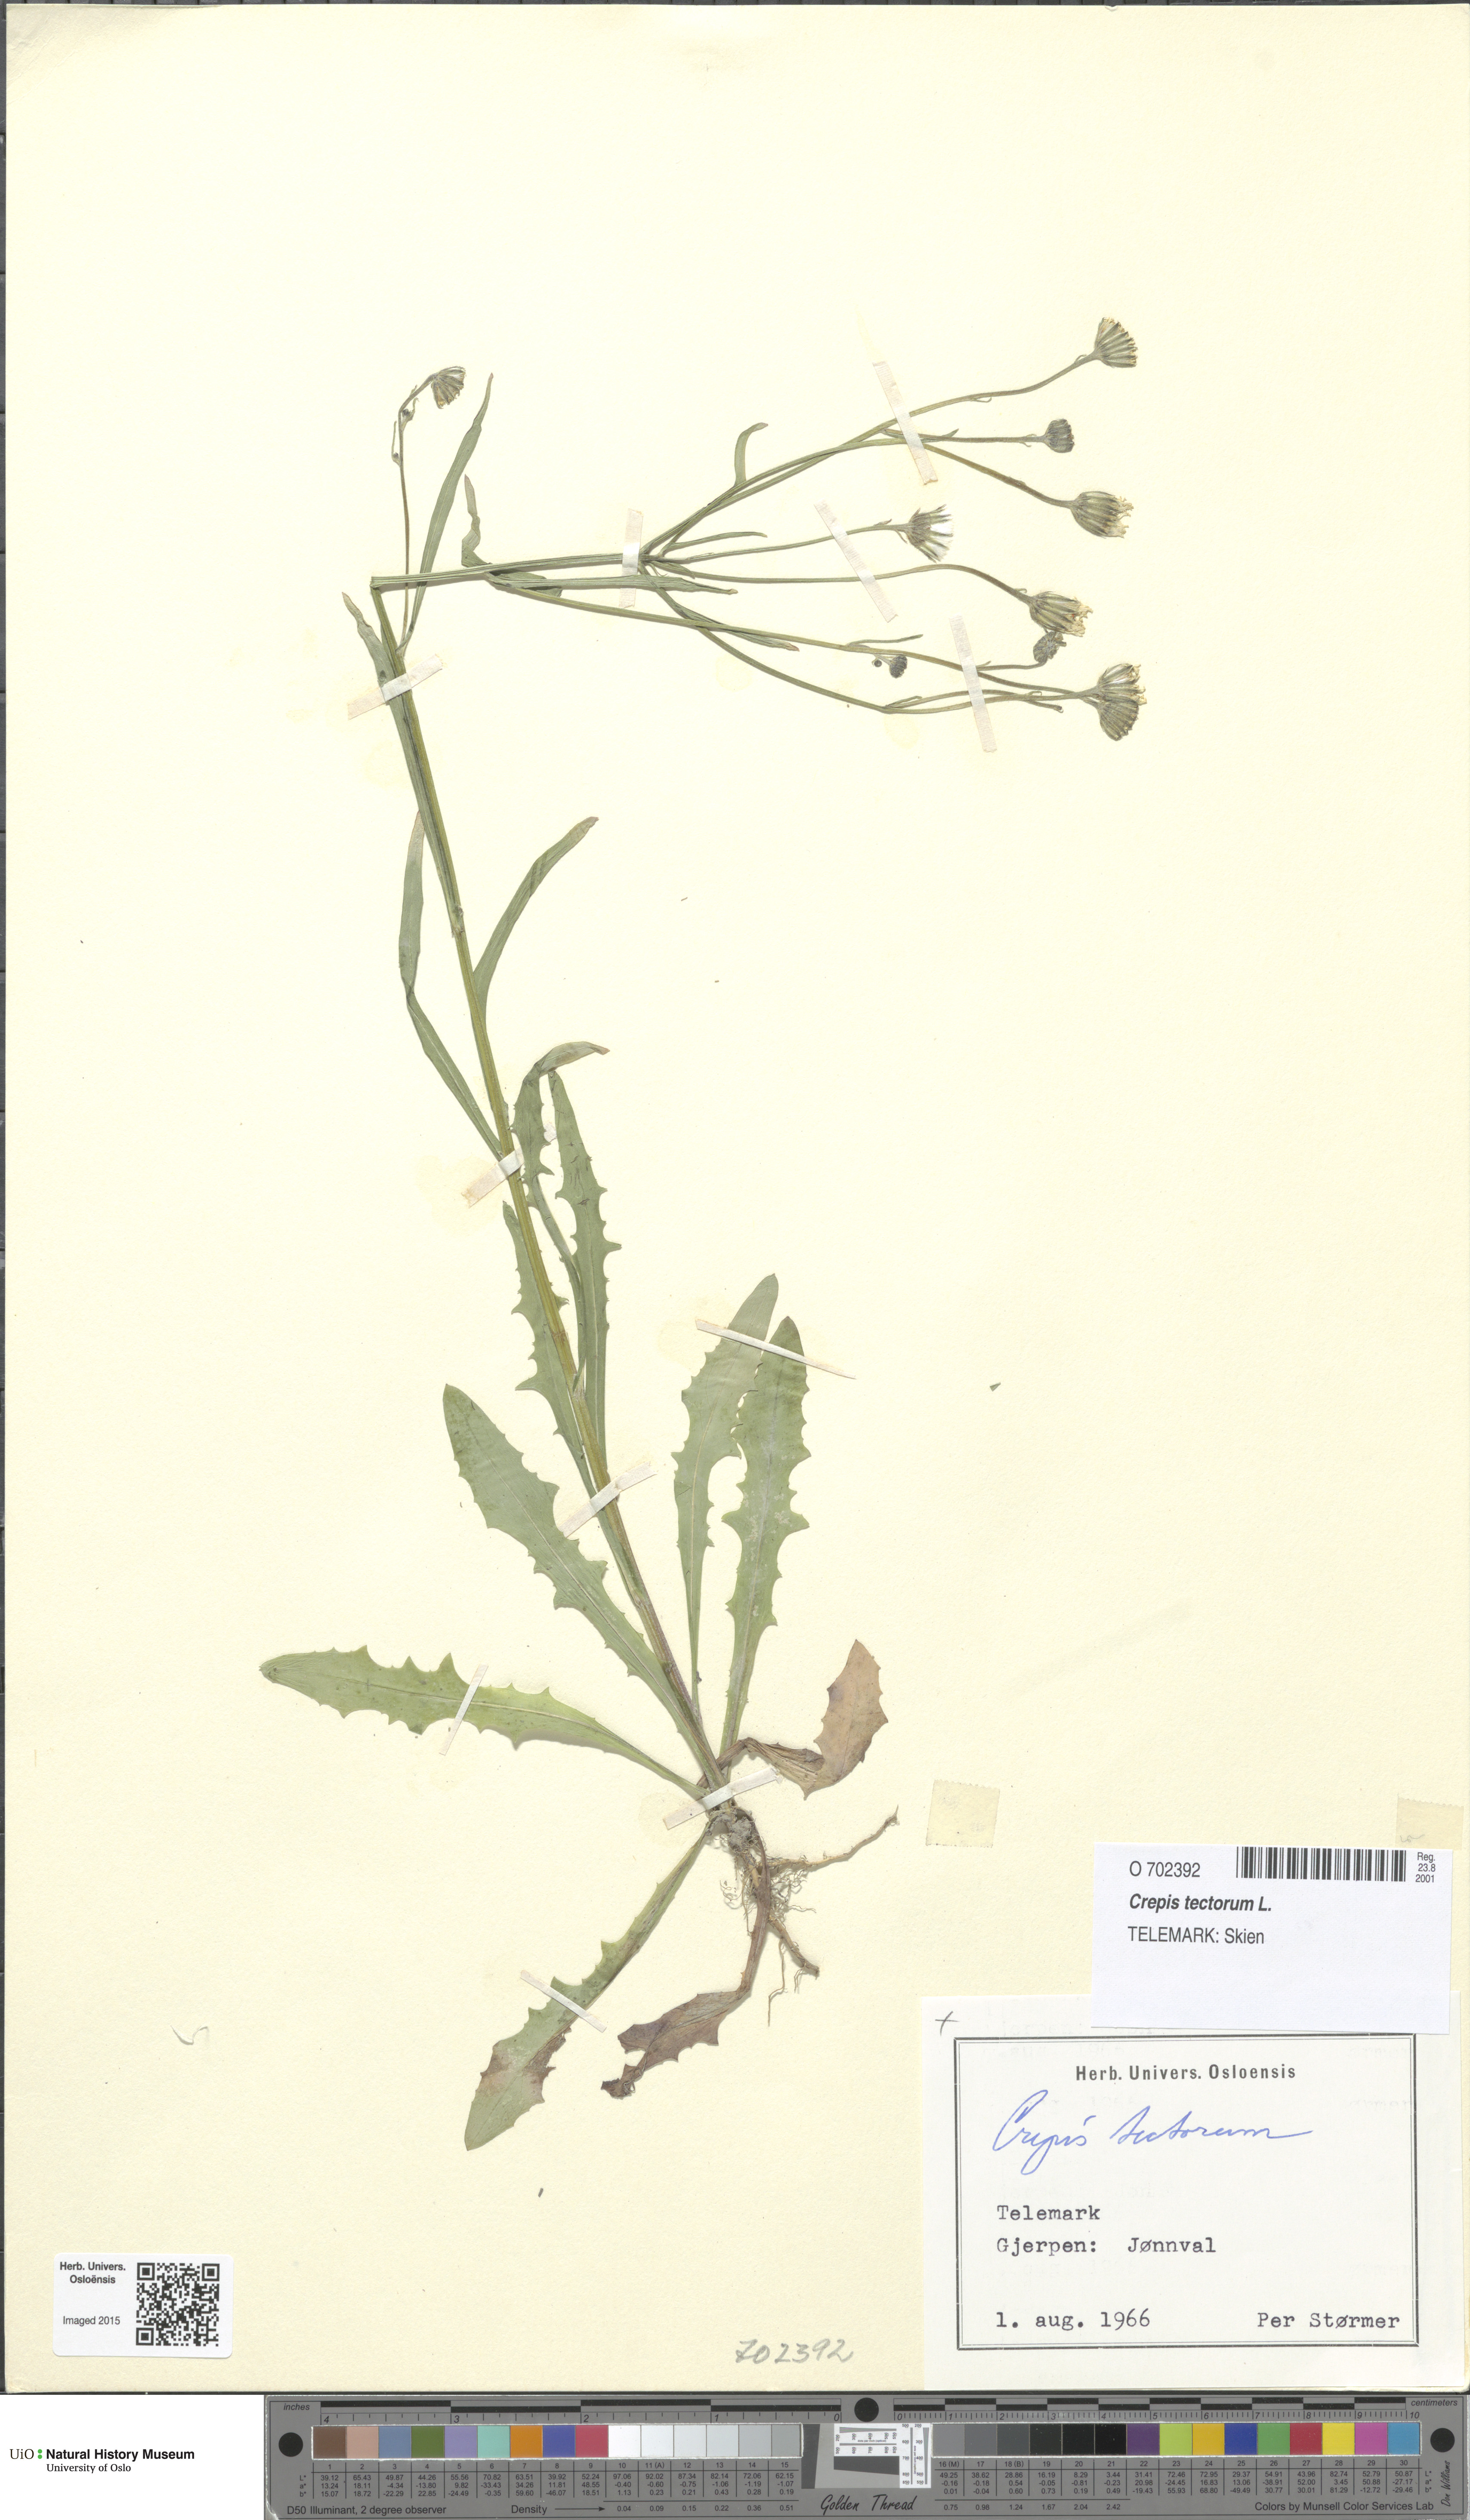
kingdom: Plantae
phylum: Tracheophyta
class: Magnoliopsida
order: Asterales
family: Asteraceae
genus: Crepis
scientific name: Crepis tectorum
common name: Narrow-leaved hawk's-beard
